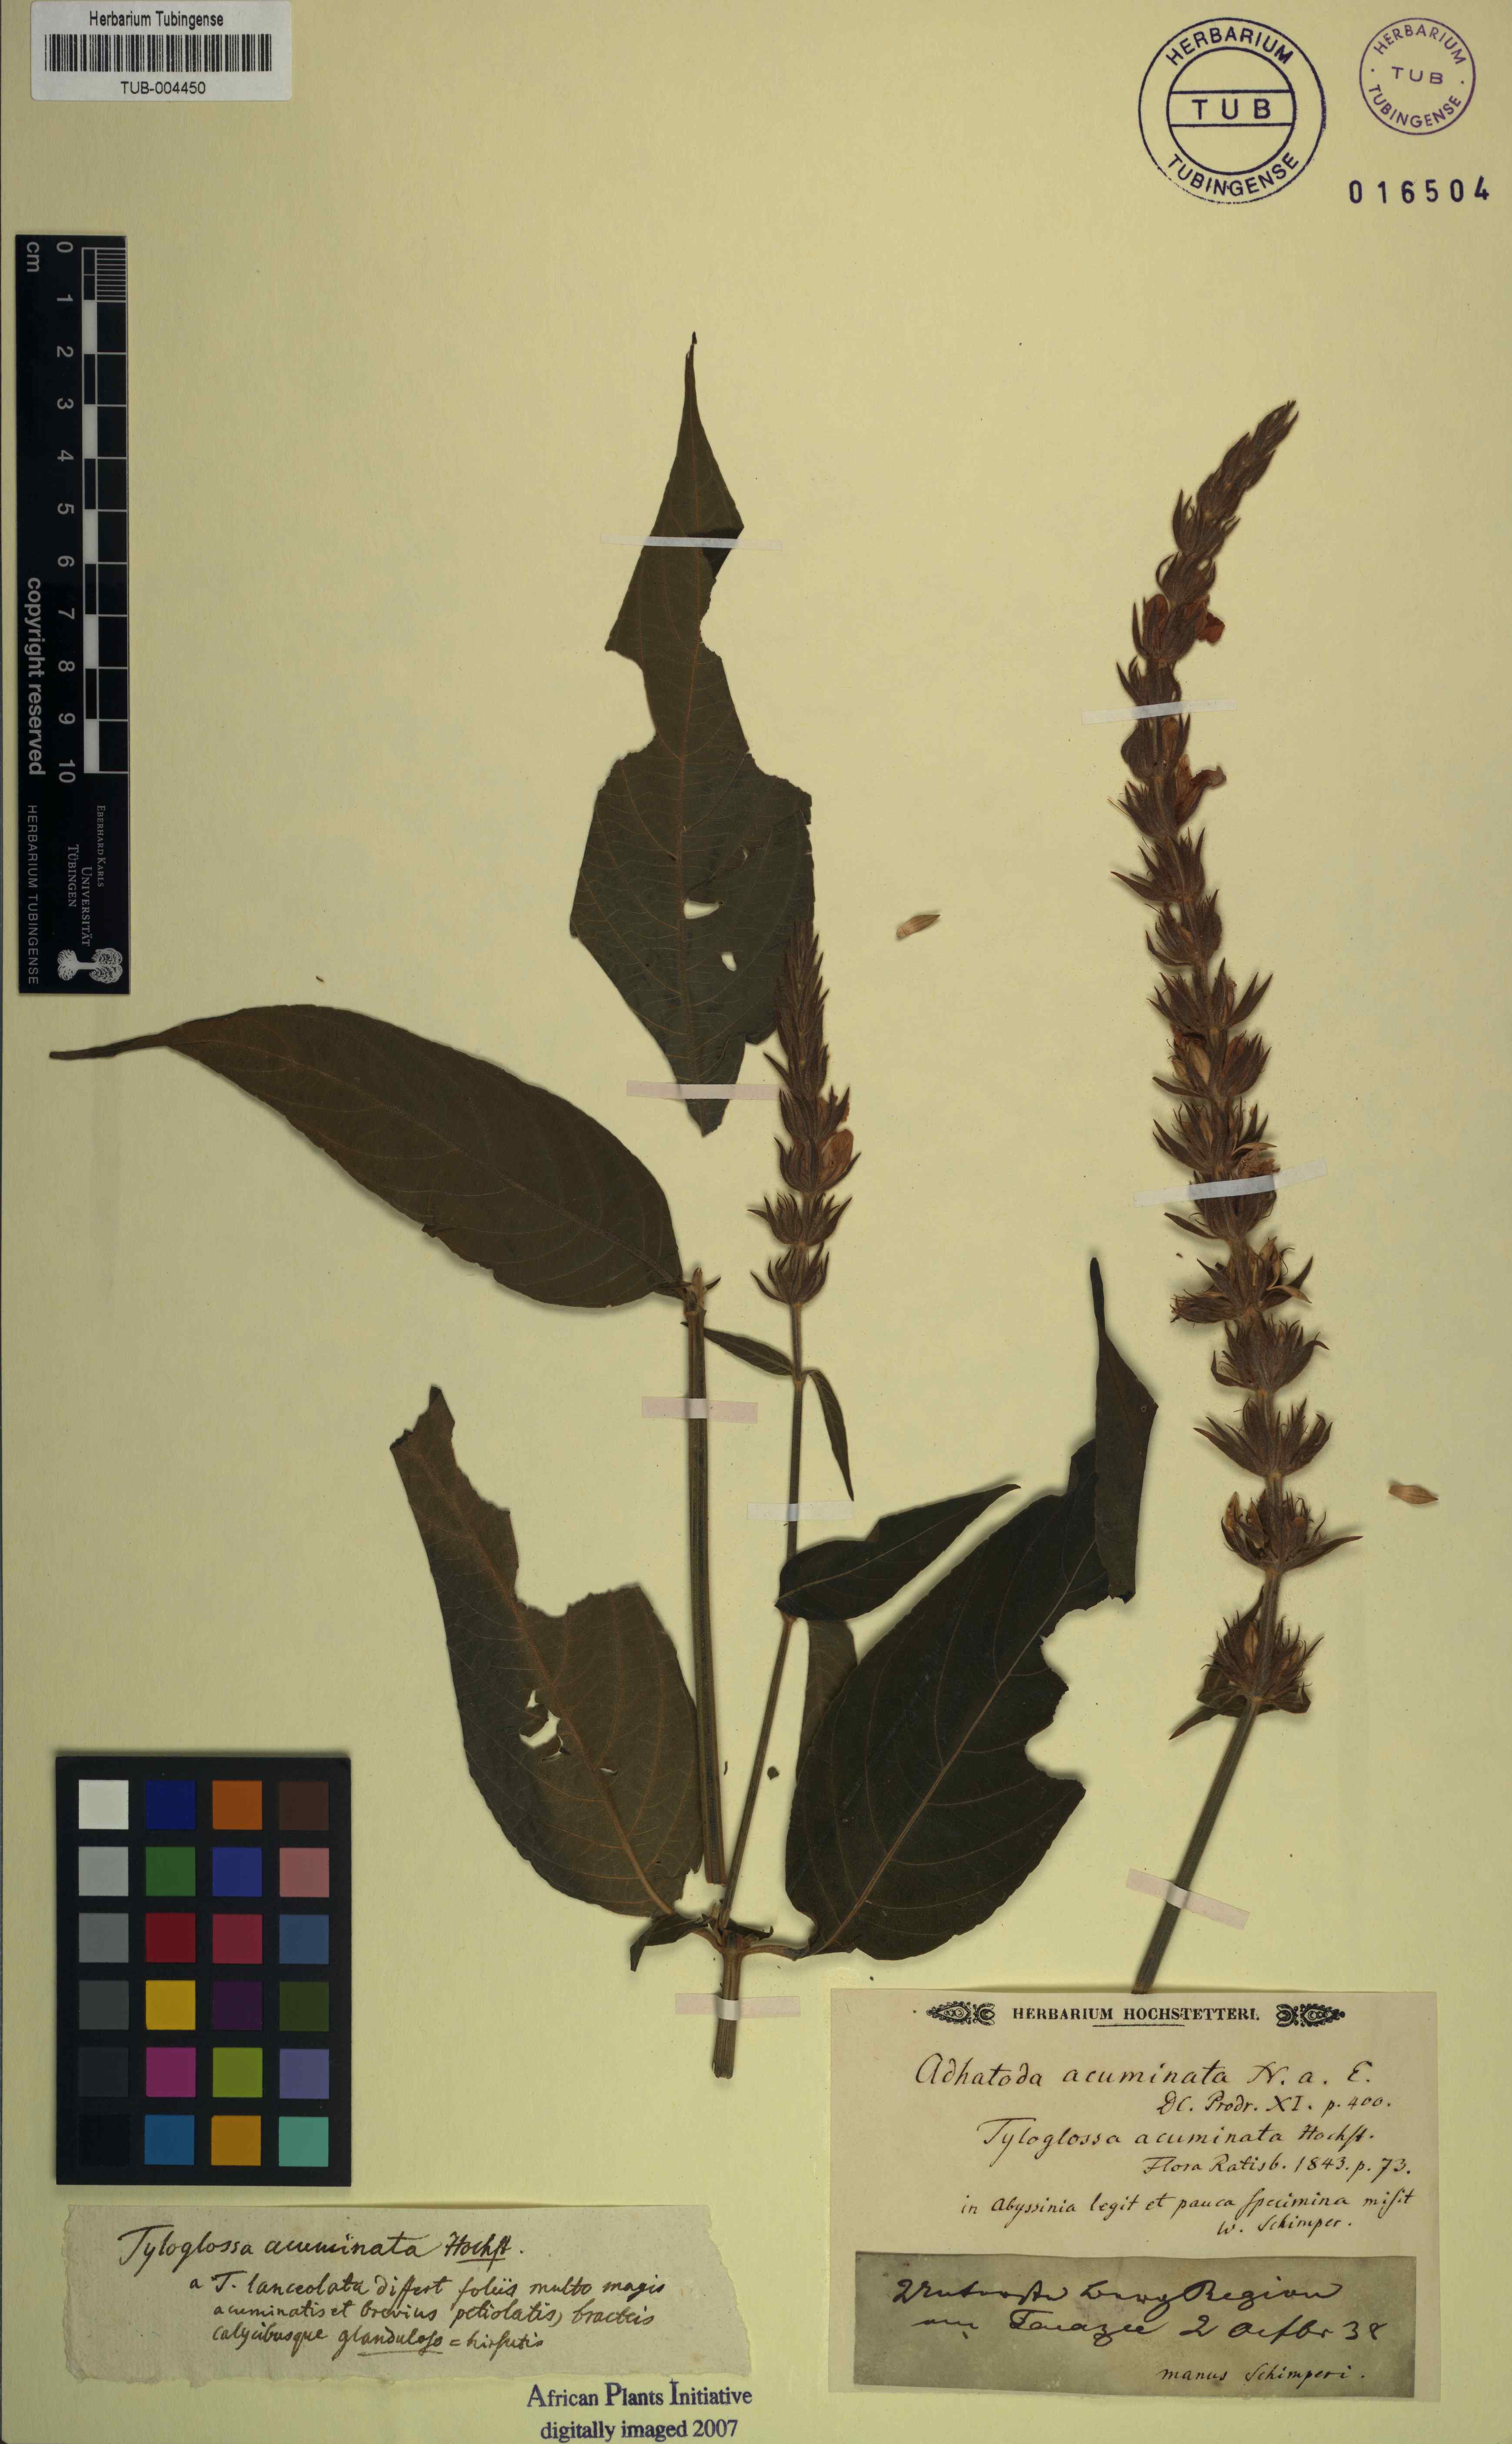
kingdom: Plantae
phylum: Tracheophyta
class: Magnoliopsida
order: Lamiales
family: Acanthaceae
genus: Justicia
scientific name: Justicia flava
